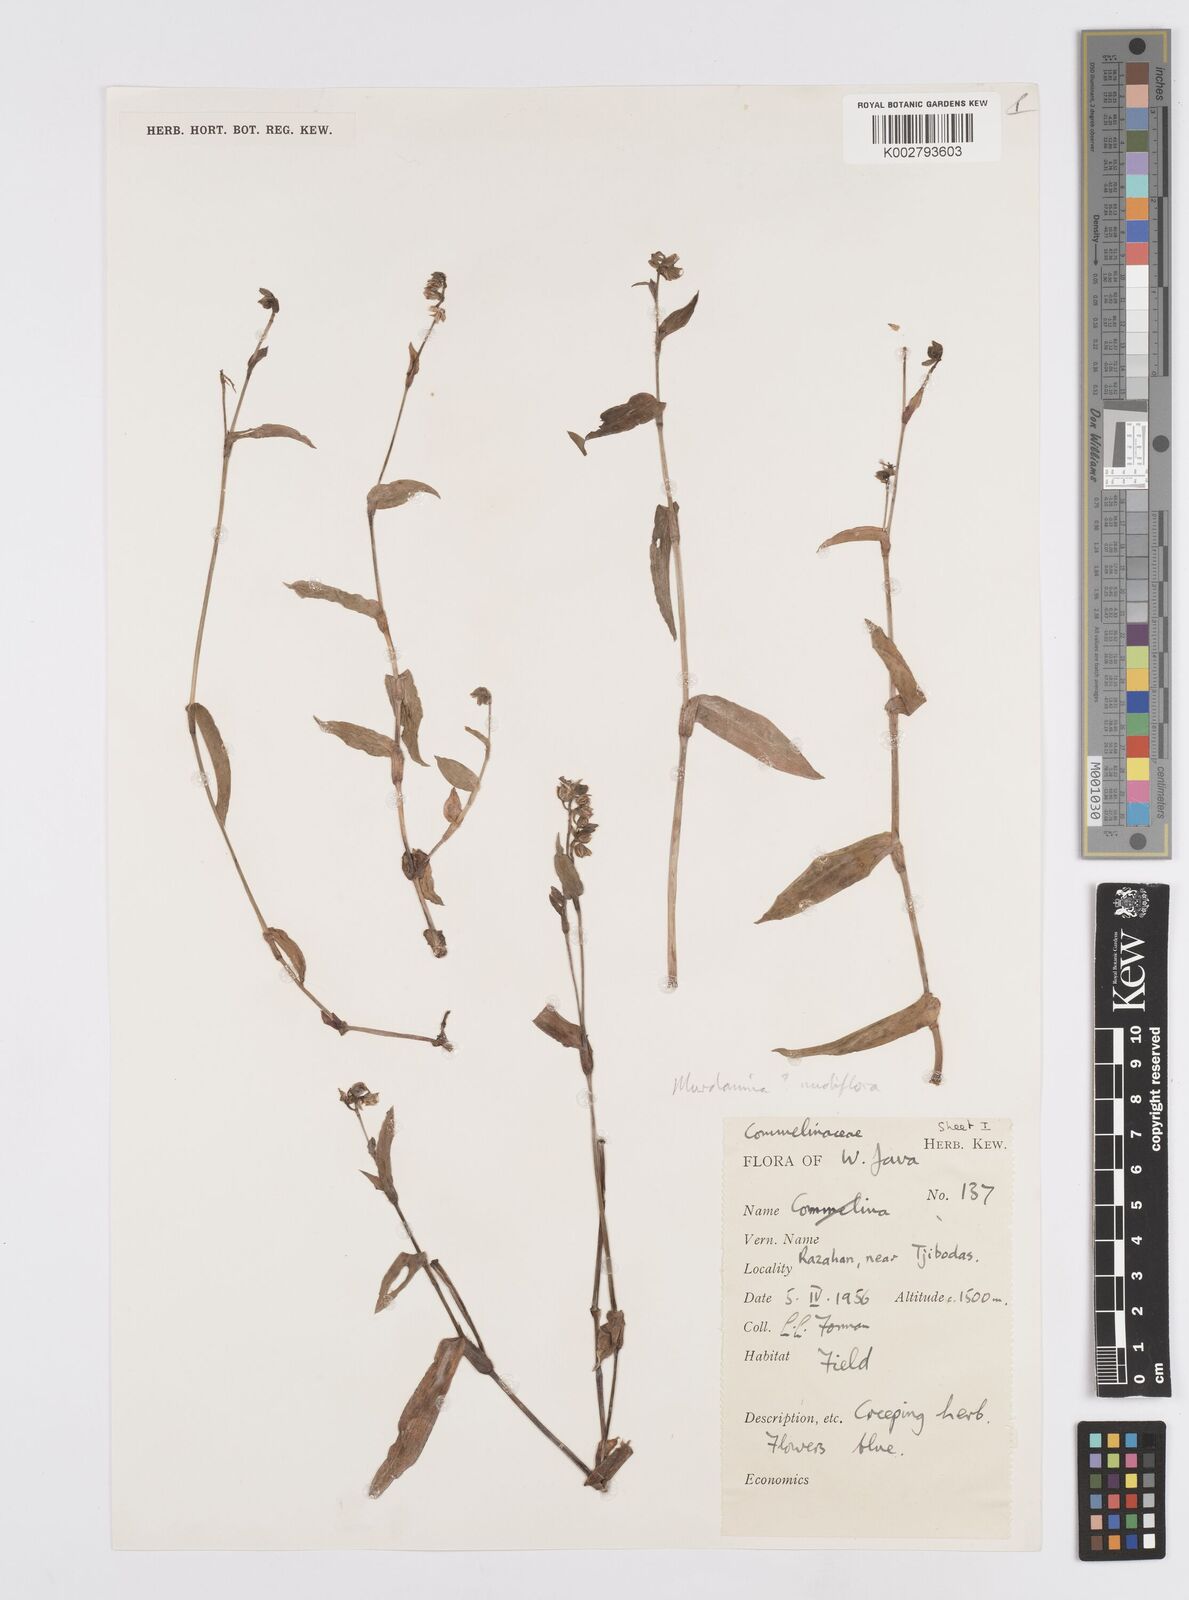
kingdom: Plantae
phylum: Tracheophyta
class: Liliopsida
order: Commelinales
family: Commelinaceae
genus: Murdannia
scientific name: Murdannia nudiflora
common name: Nakedstem dewflower
